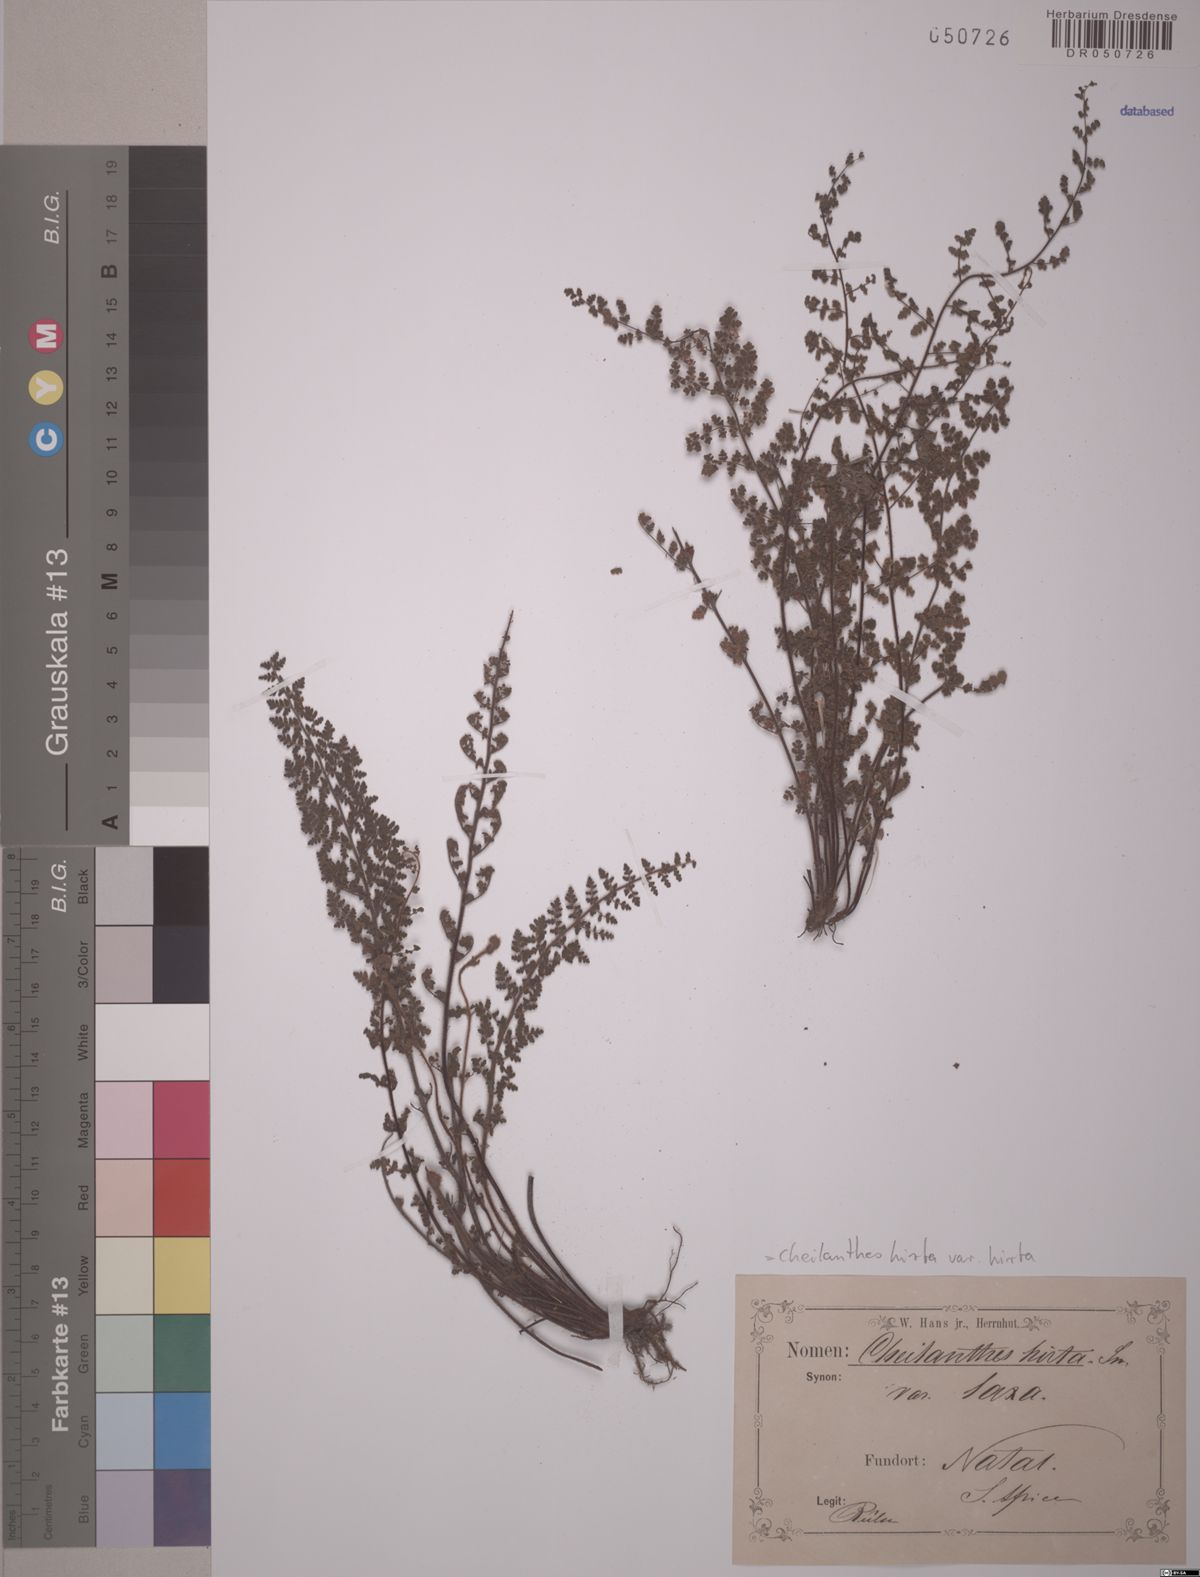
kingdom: Plantae
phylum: Tracheophyta
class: Polypodiopsida
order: Polypodiales
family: Pteridaceae
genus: Cheilanthes
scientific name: Cheilanthes hirta
